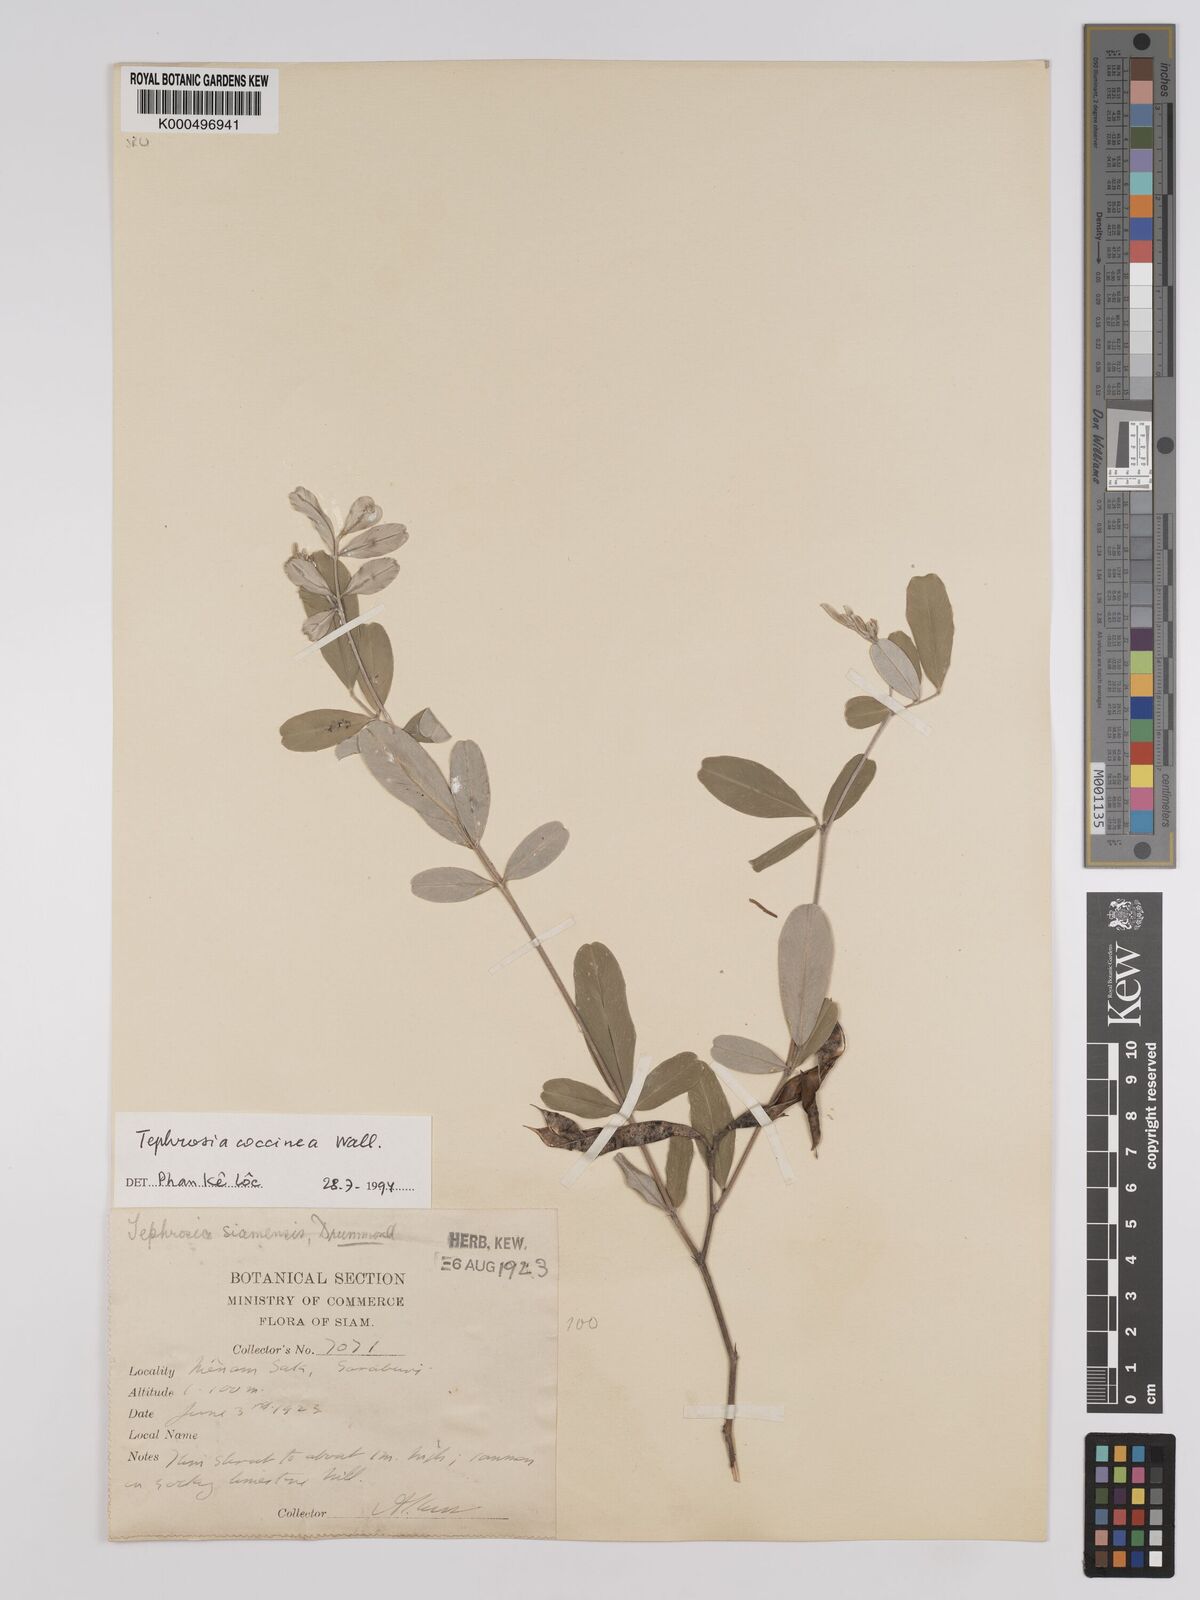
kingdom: Plantae
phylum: Tracheophyta
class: Magnoliopsida
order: Fabales
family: Fabaceae
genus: Tephrosia
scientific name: Tephrosia coccinea
